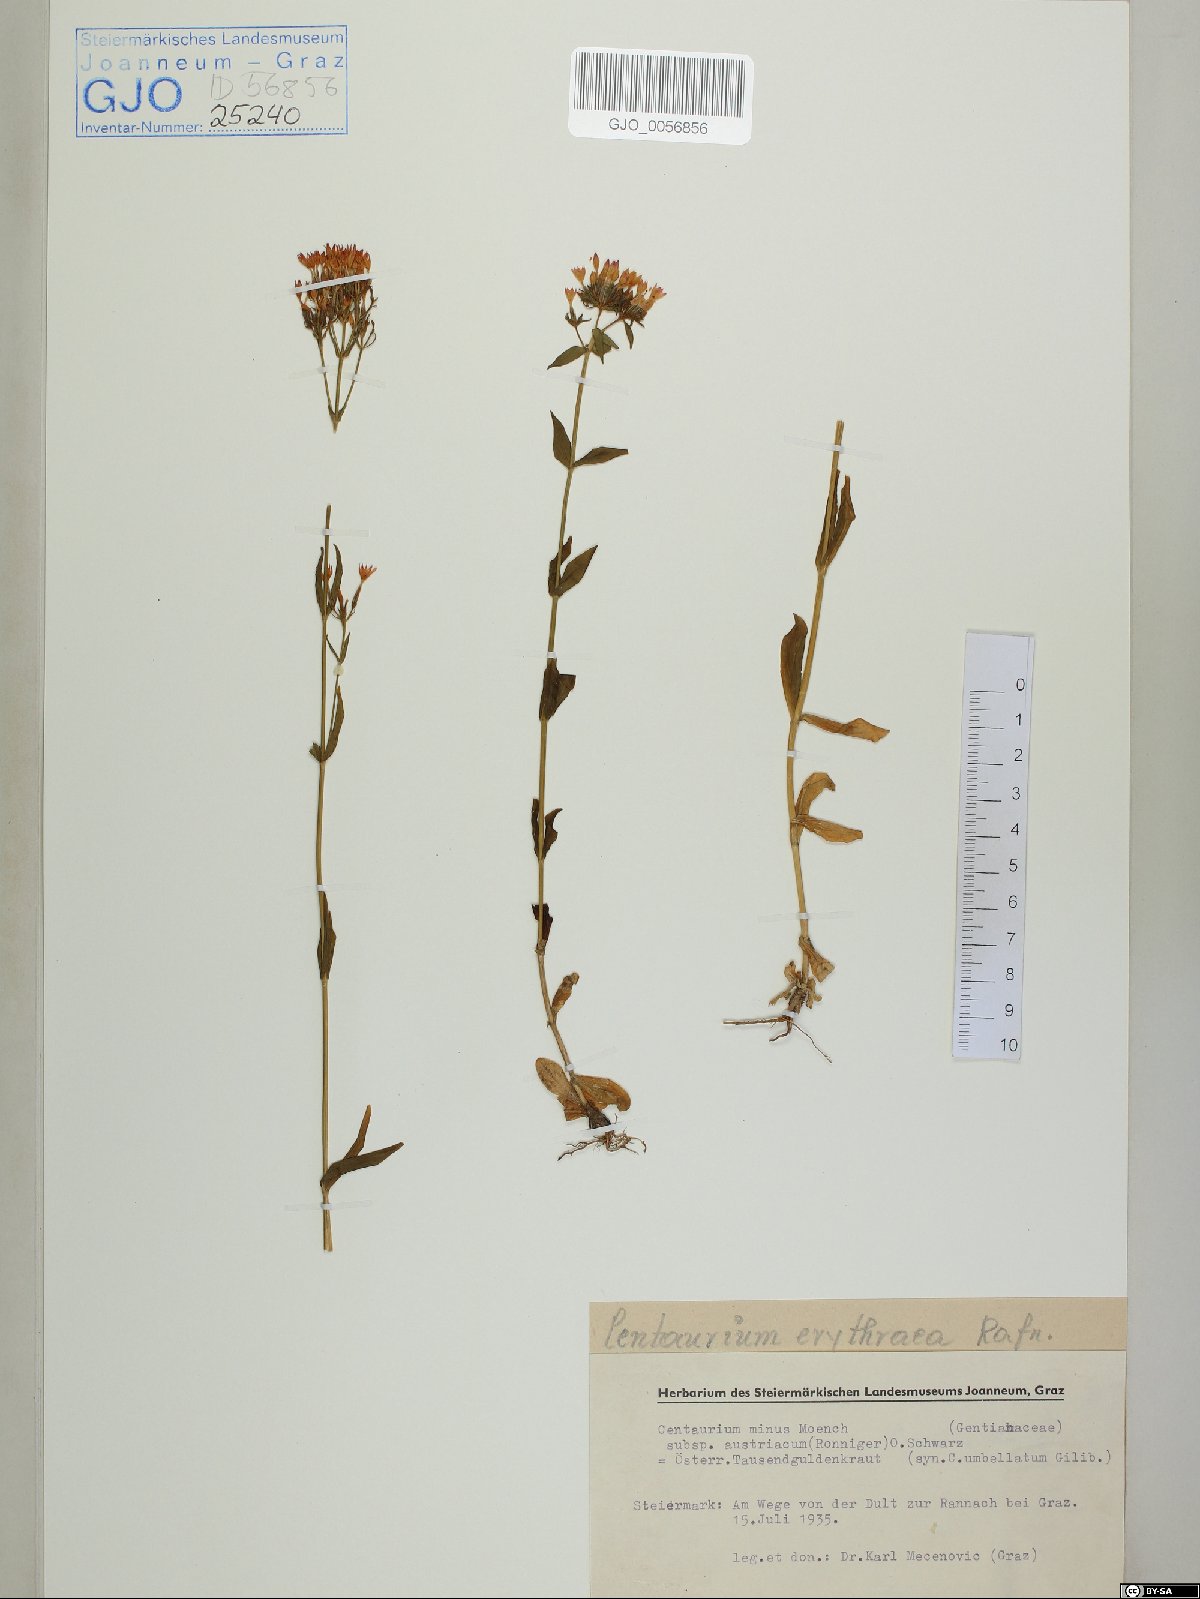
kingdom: Plantae
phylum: Tracheophyta
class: Magnoliopsida
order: Gentianales
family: Gentianaceae
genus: Centaurium
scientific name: Centaurium erythraea
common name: Common centaury
